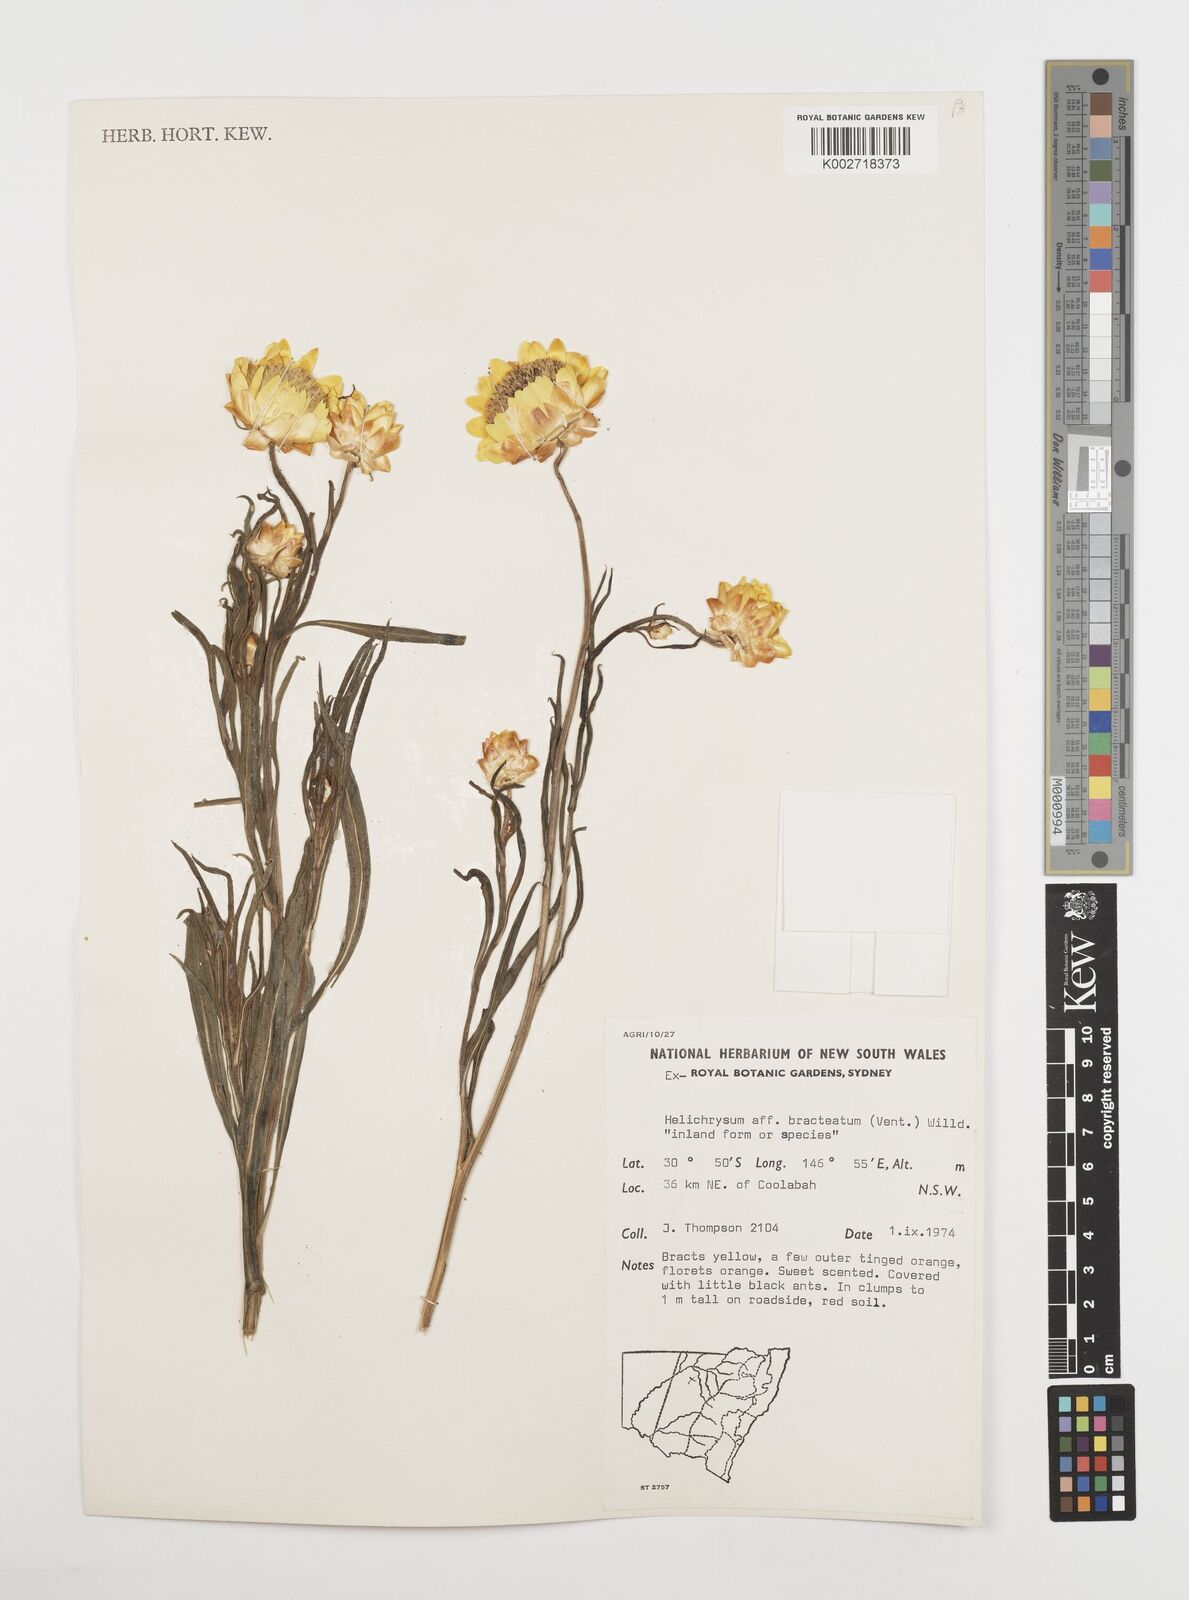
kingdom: Plantae
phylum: Tracheophyta
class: Magnoliopsida
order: Asterales
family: Asteraceae
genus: Xerochrysum
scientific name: Xerochrysum bracteatum
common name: Bracted strawflower
